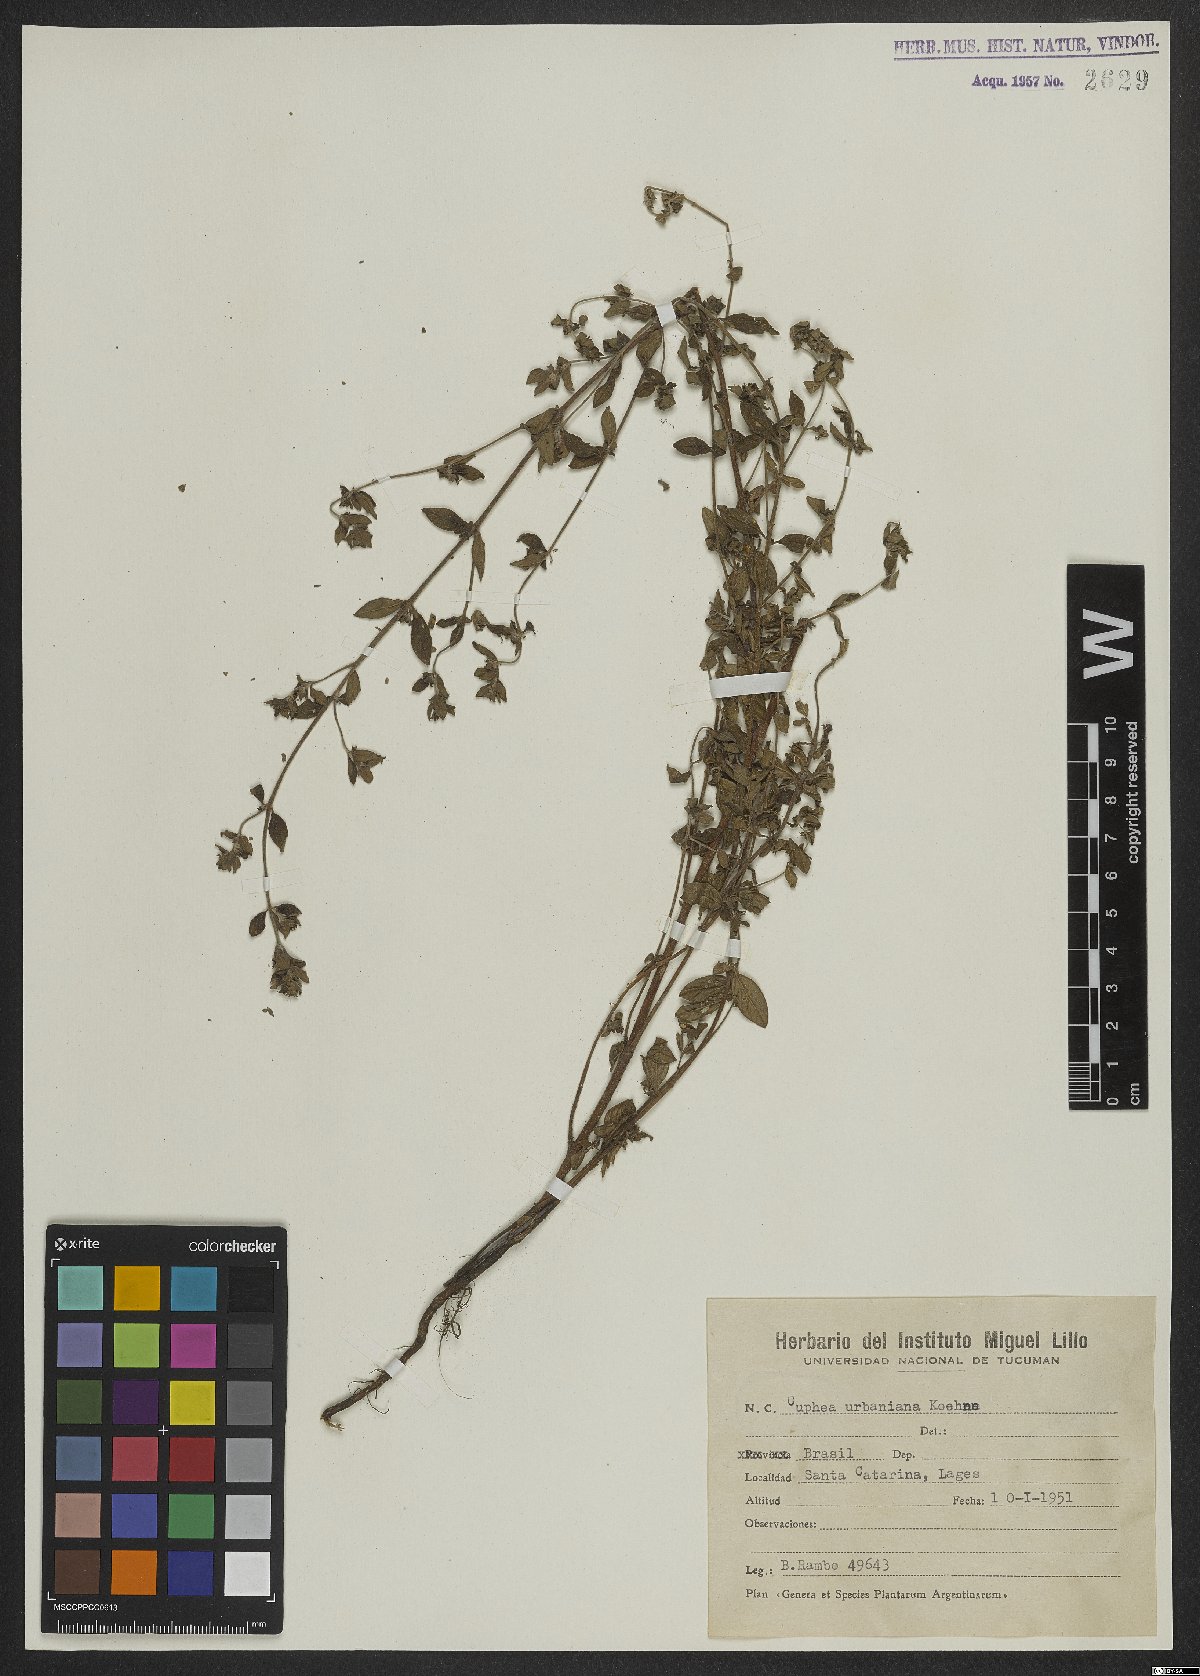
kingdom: Plantae
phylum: Tracheophyta
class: Magnoliopsida
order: Myrtales
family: Lythraceae
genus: Cuphea
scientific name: Cuphea urbaniana
